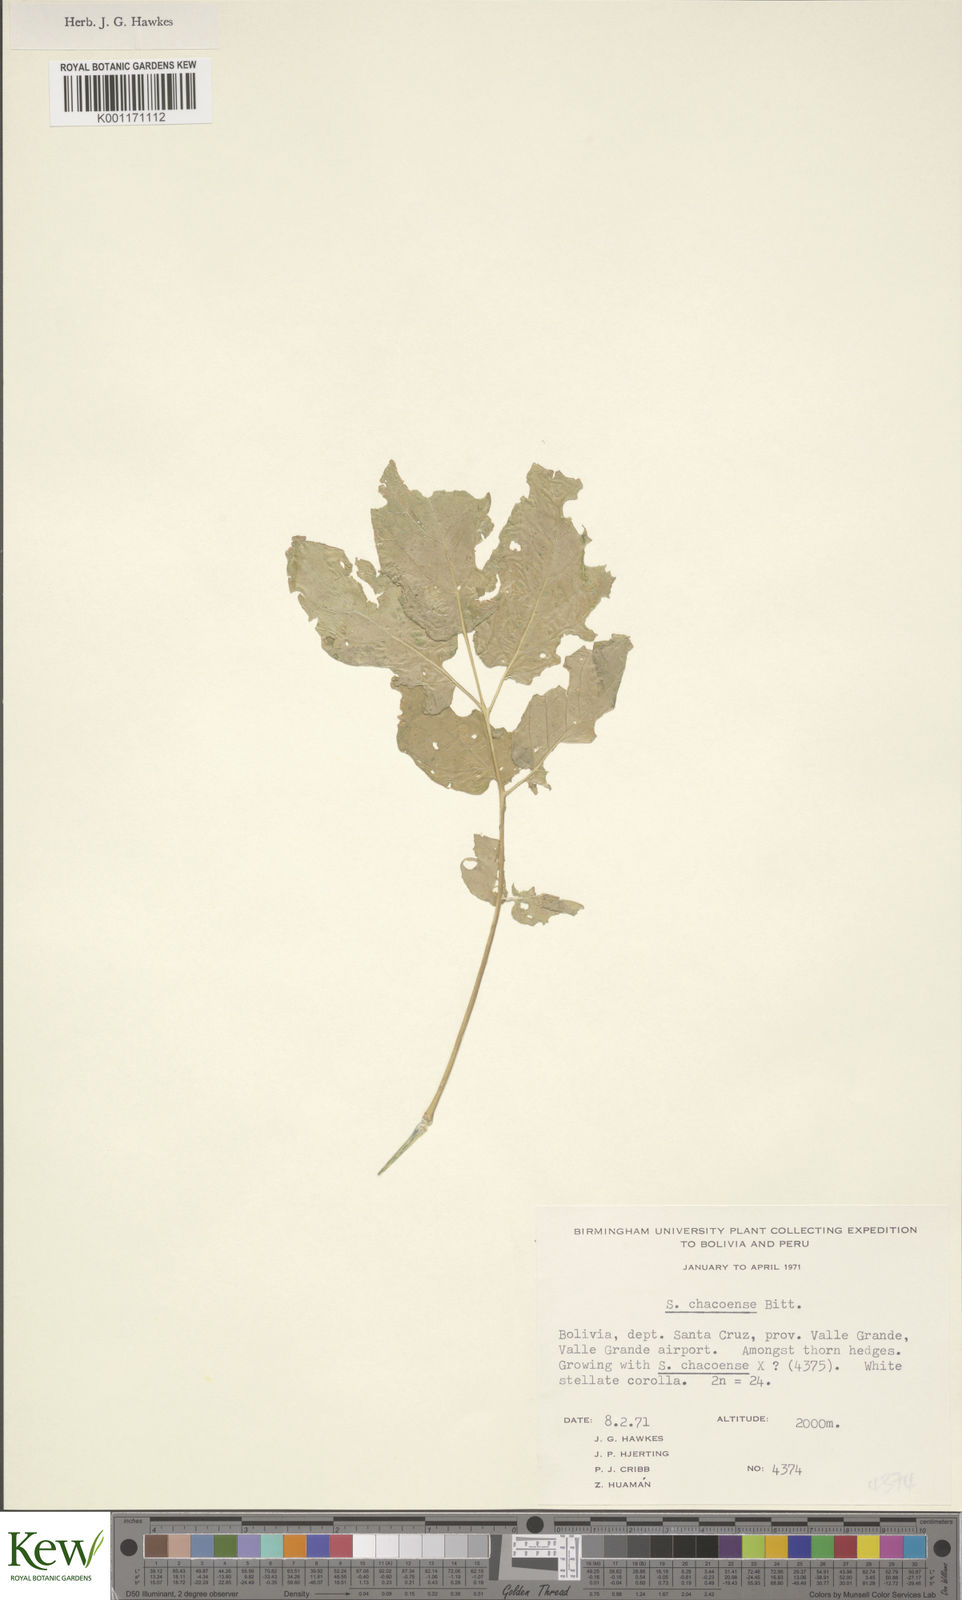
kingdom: Plantae
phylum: Tracheophyta
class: Magnoliopsida
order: Solanales
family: Solanaceae
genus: Solanum
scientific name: Solanum chacoense
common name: Chaco potato
